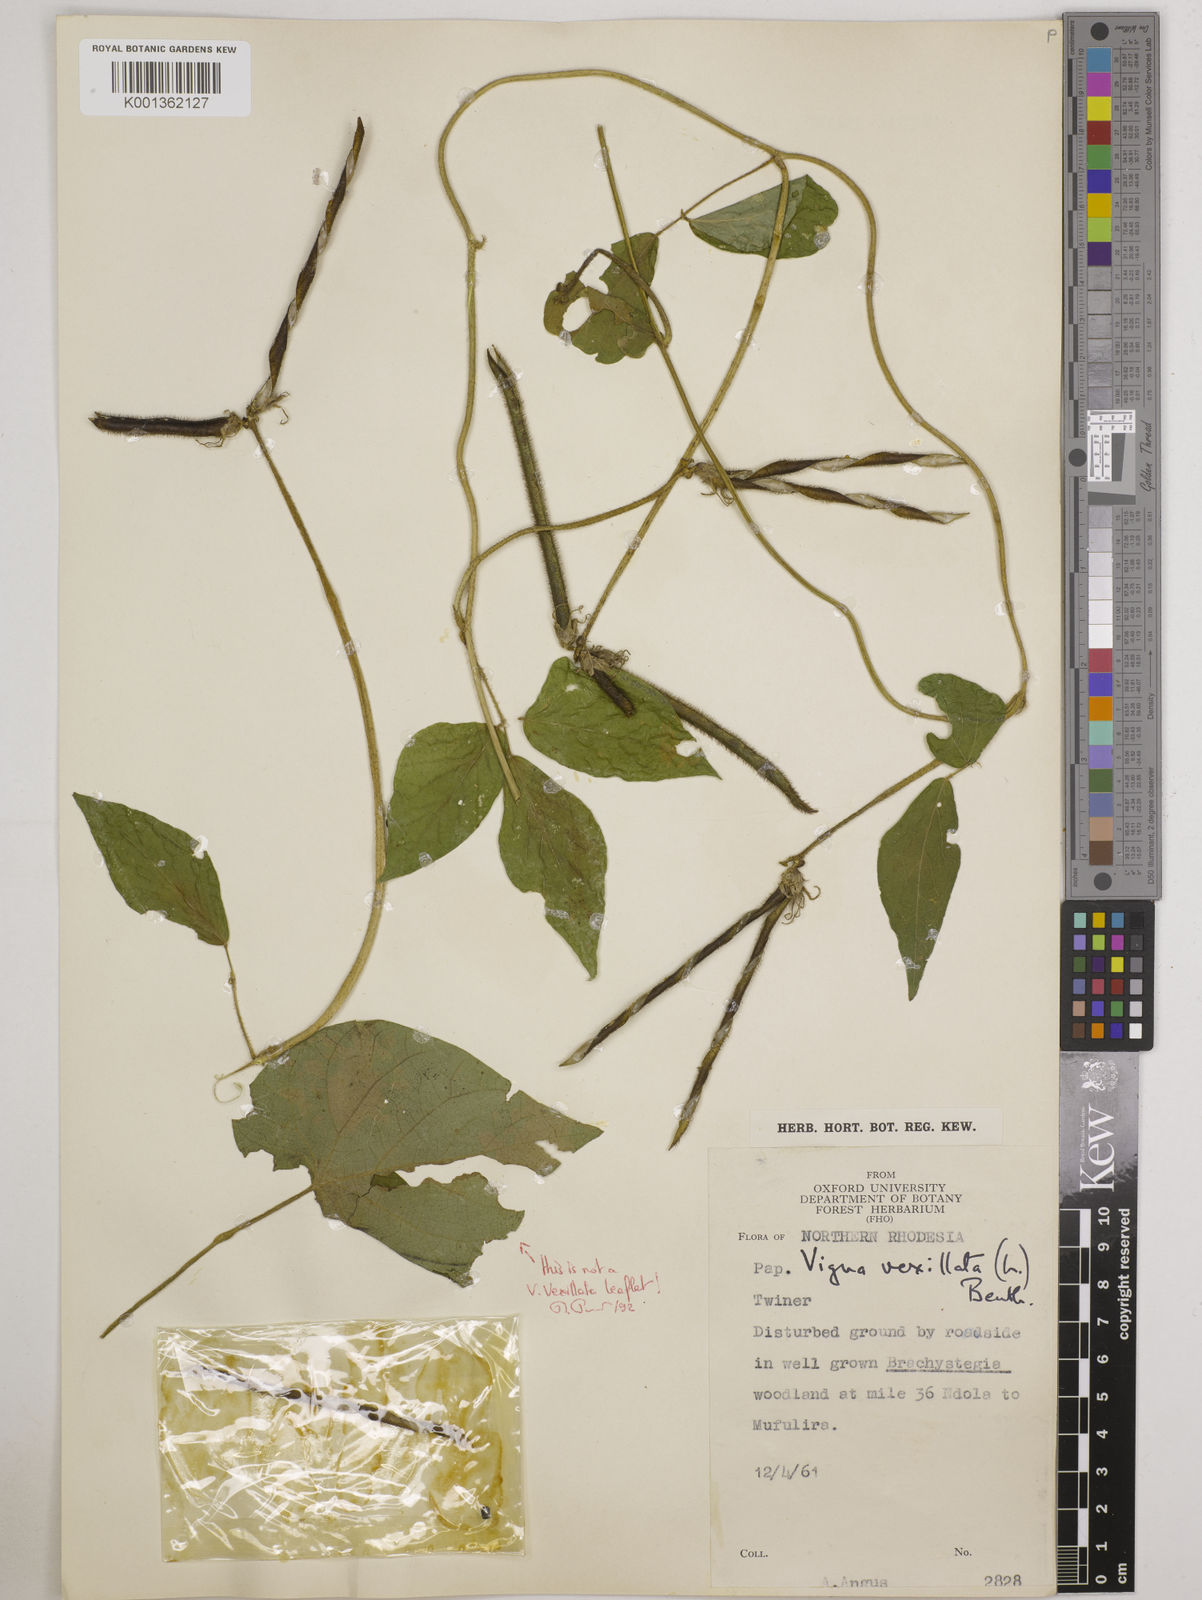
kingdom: Plantae
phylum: Tracheophyta
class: Magnoliopsida
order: Fabales
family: Fabaceae
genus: Vigna
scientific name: Vigna vexillata
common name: Zombi pea
